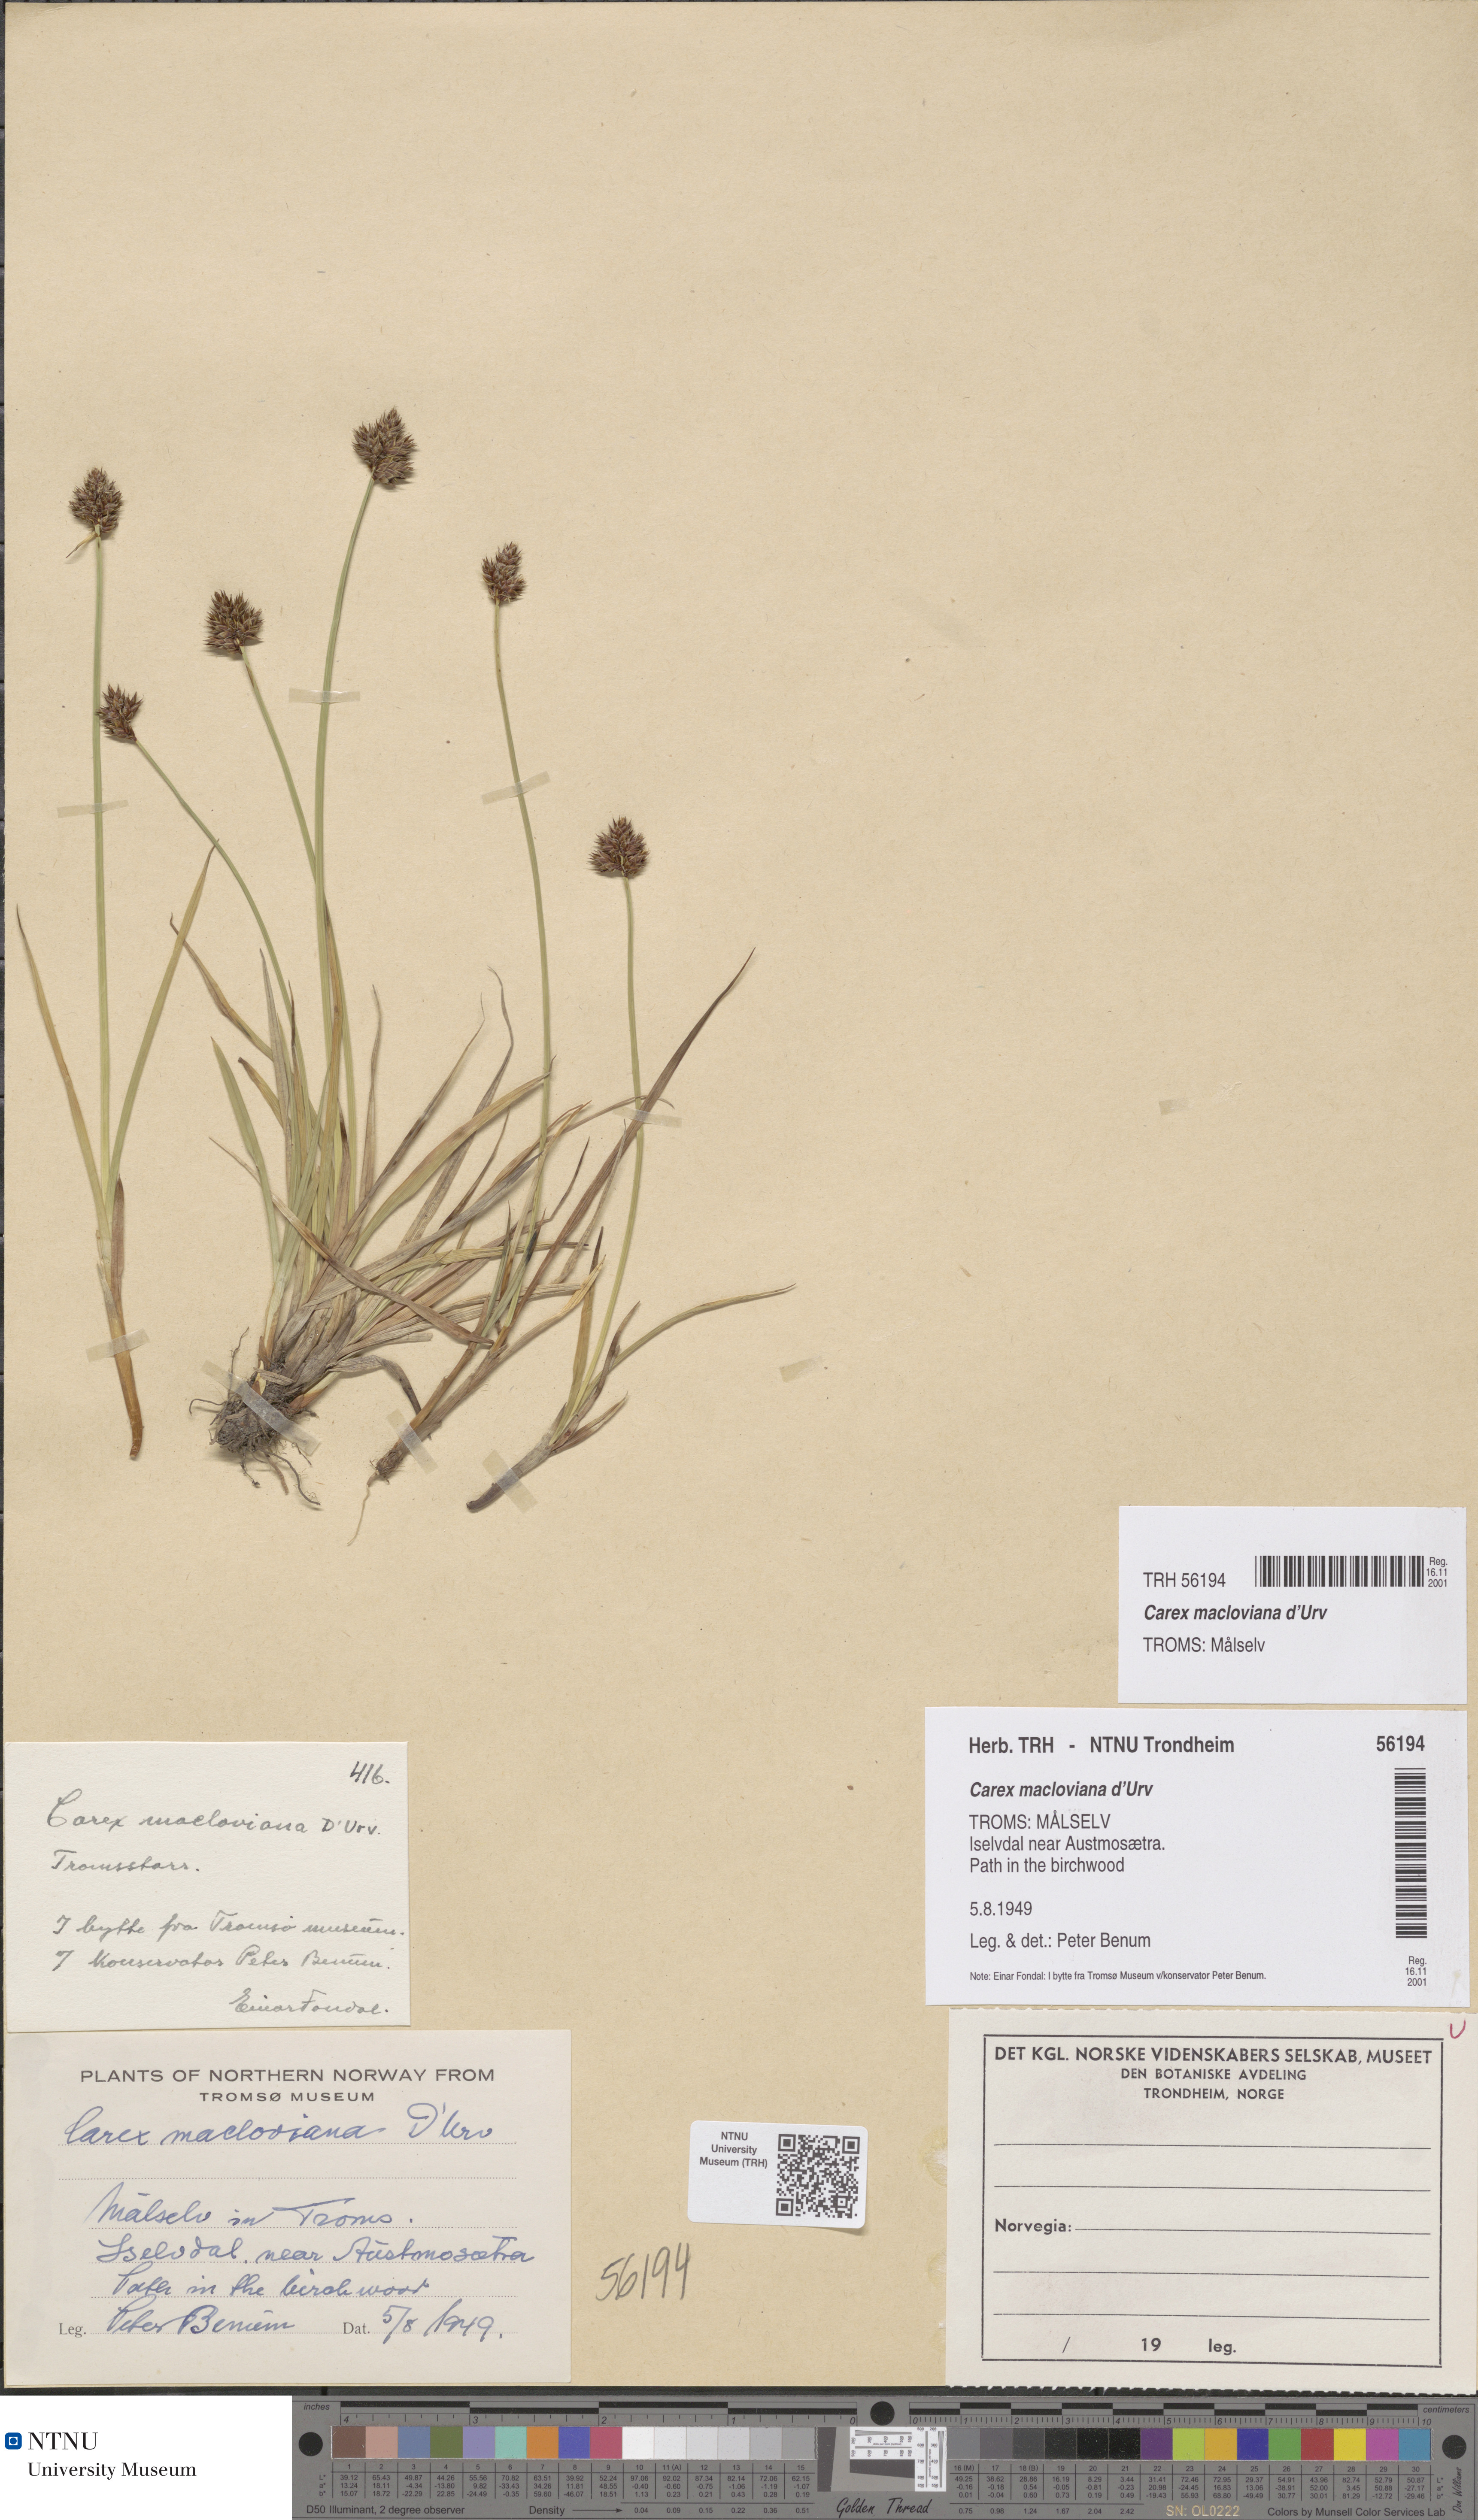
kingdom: Plantae
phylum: Tracheophyta
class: Liliopsida
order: Poales
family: Cyperaceae
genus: Carex
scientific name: Carex macloviana
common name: Falkland island sedge
